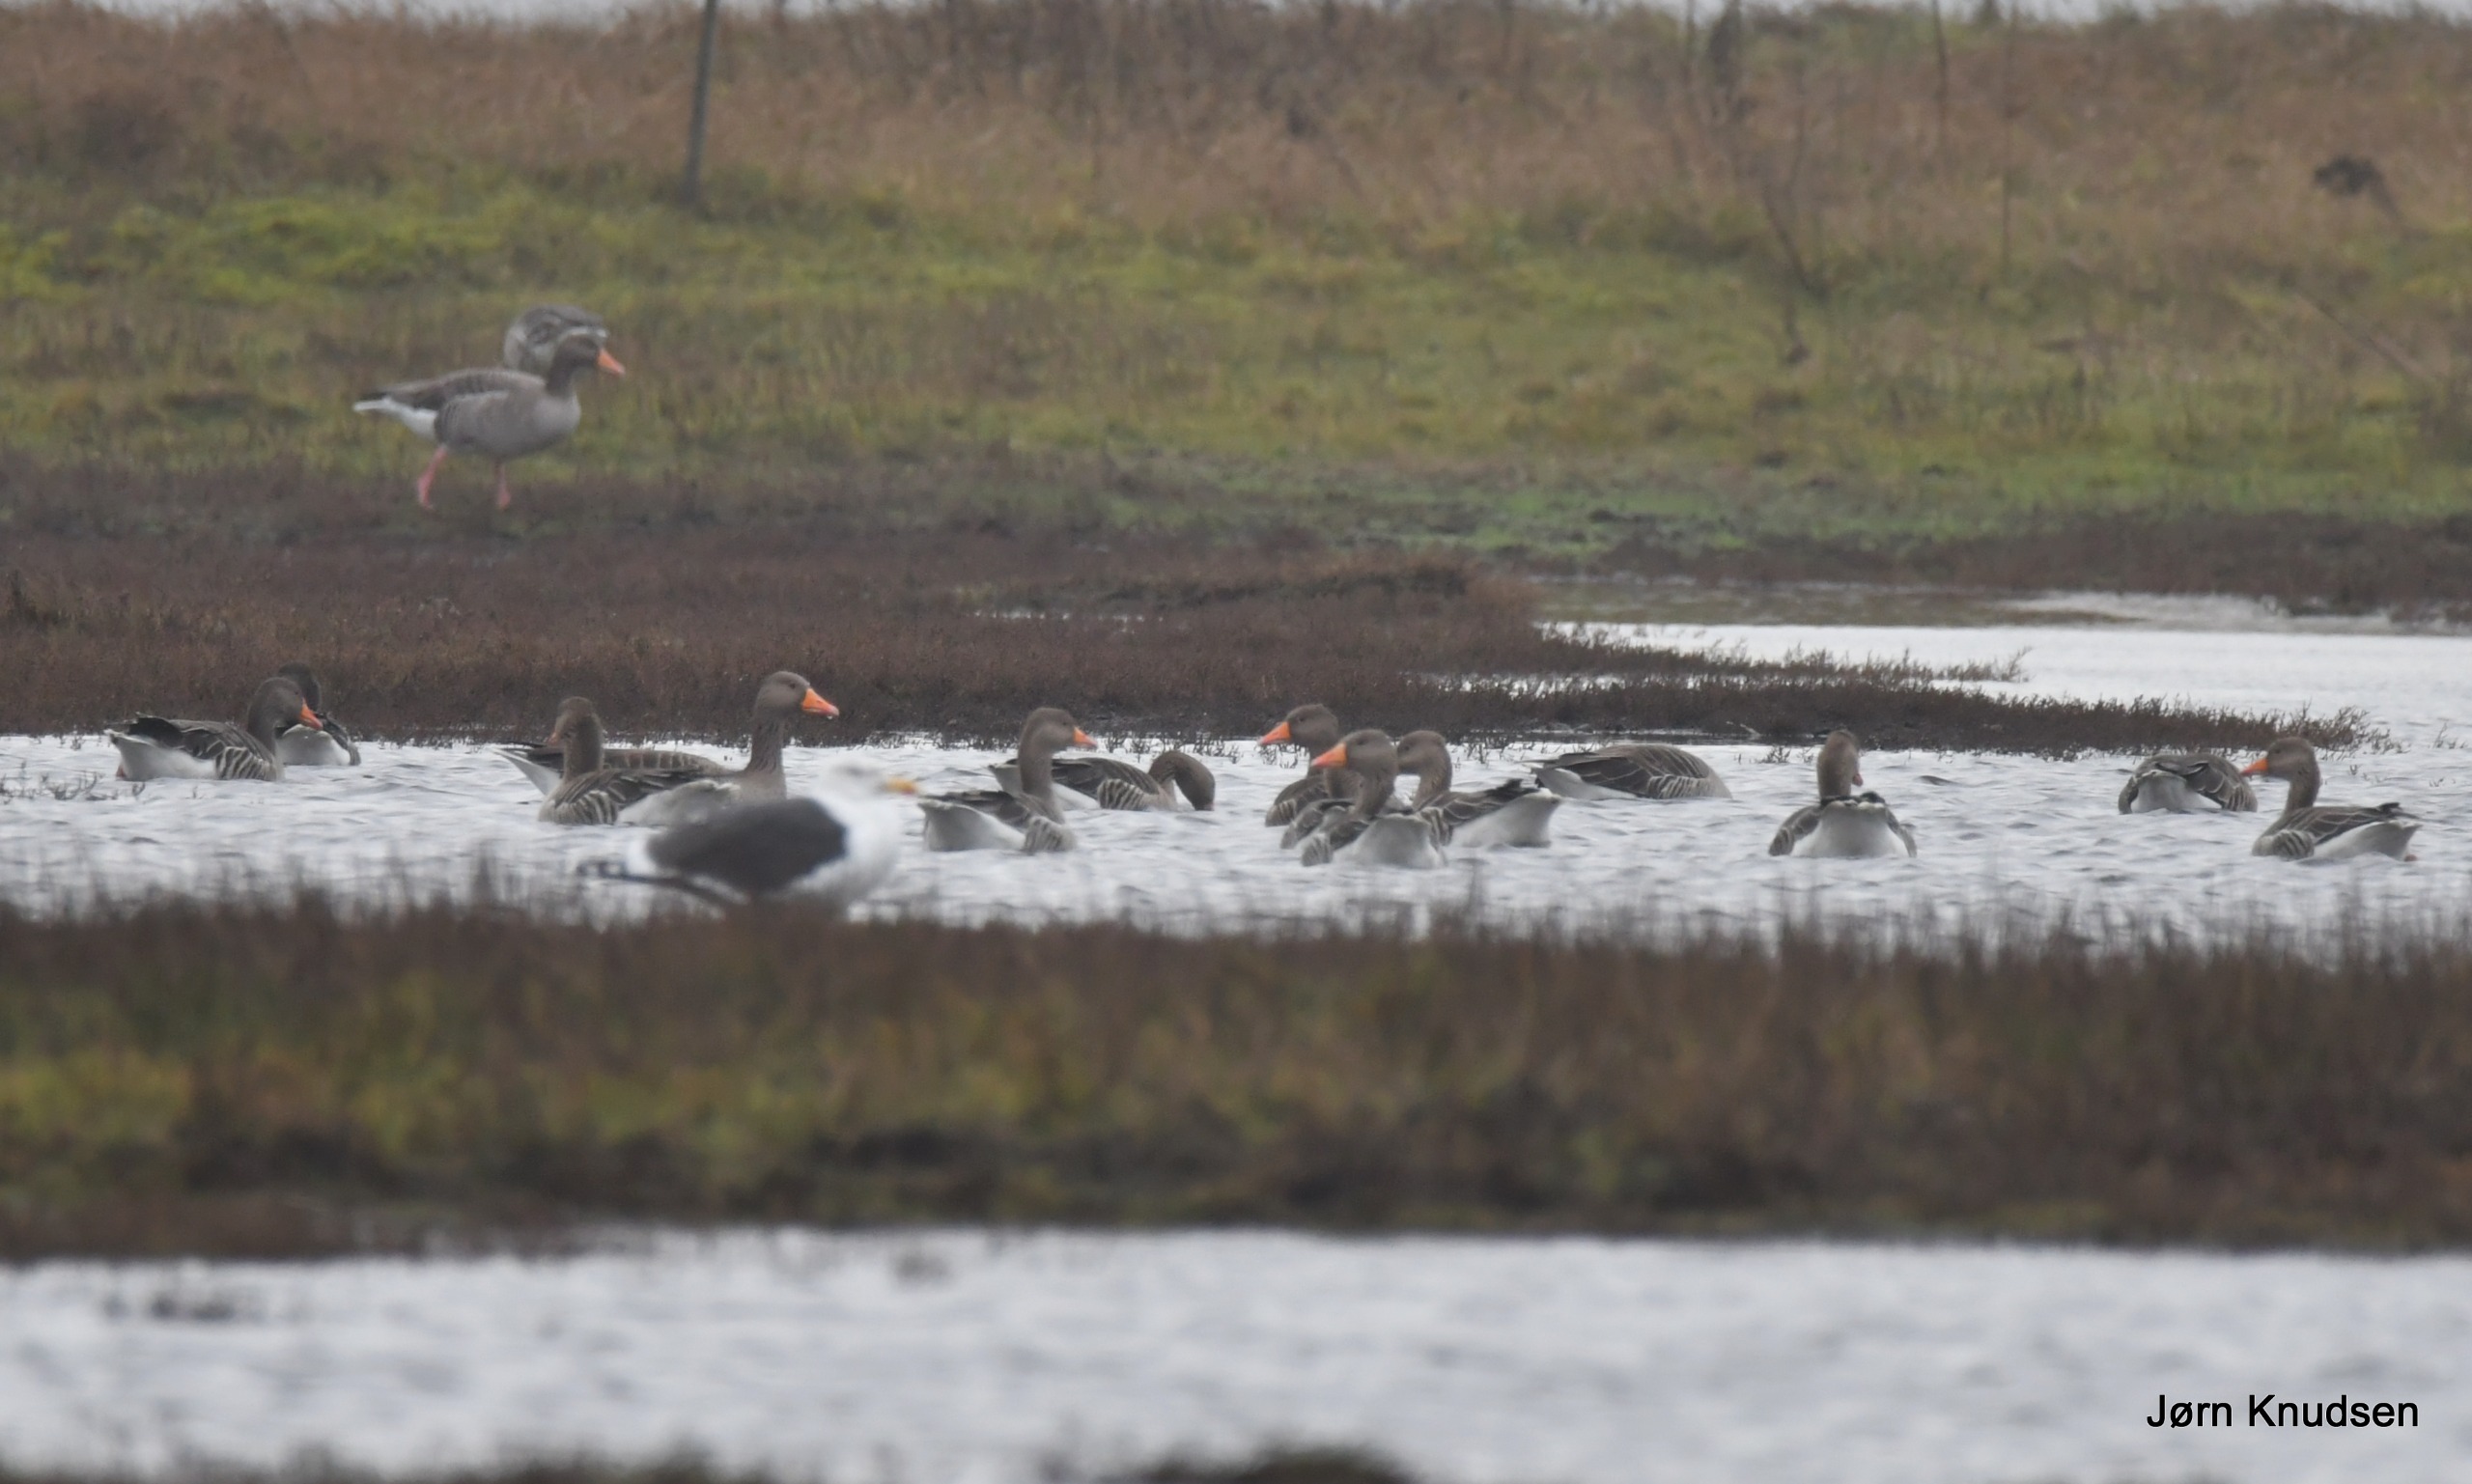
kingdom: Animalia
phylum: Chordata
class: Aves
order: Anseriformes
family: Anatidae
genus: Anser
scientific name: Anser anser
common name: Grågås
